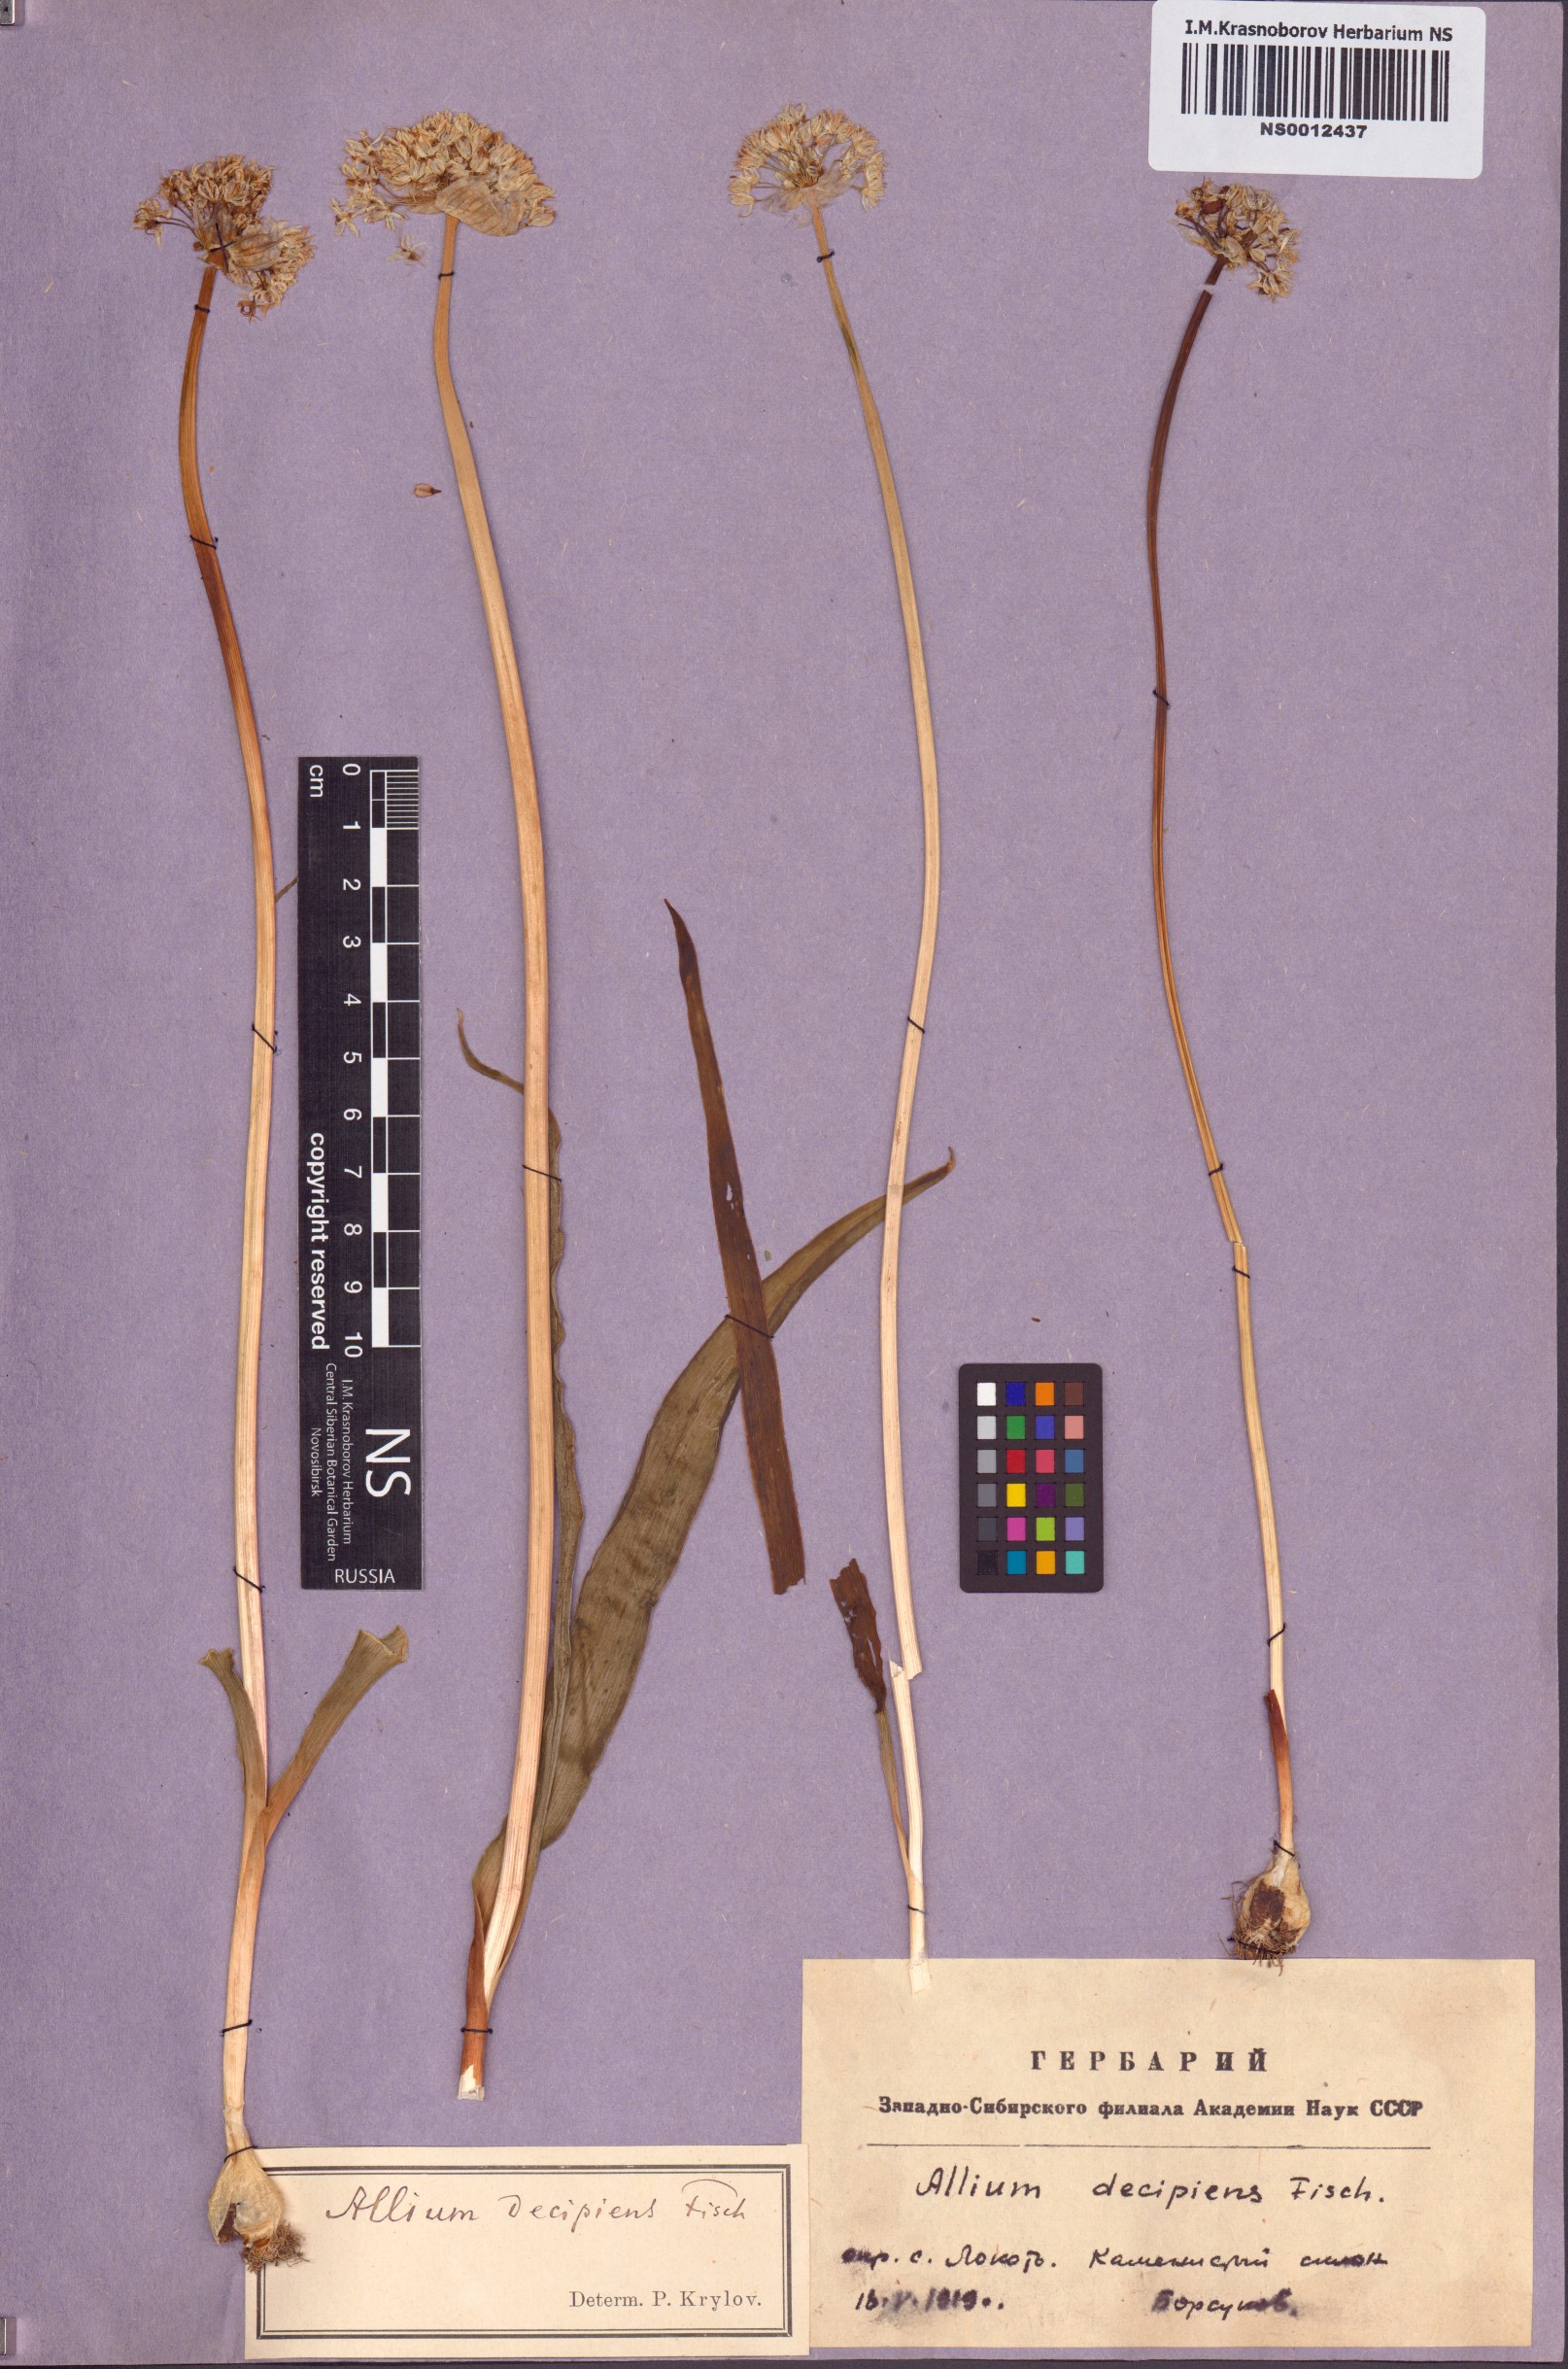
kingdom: Plantae
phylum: Tracheophyta
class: Liliopsida
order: Asparagales
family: Amaryllidaceae
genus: Allium
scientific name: Allium decipiens
